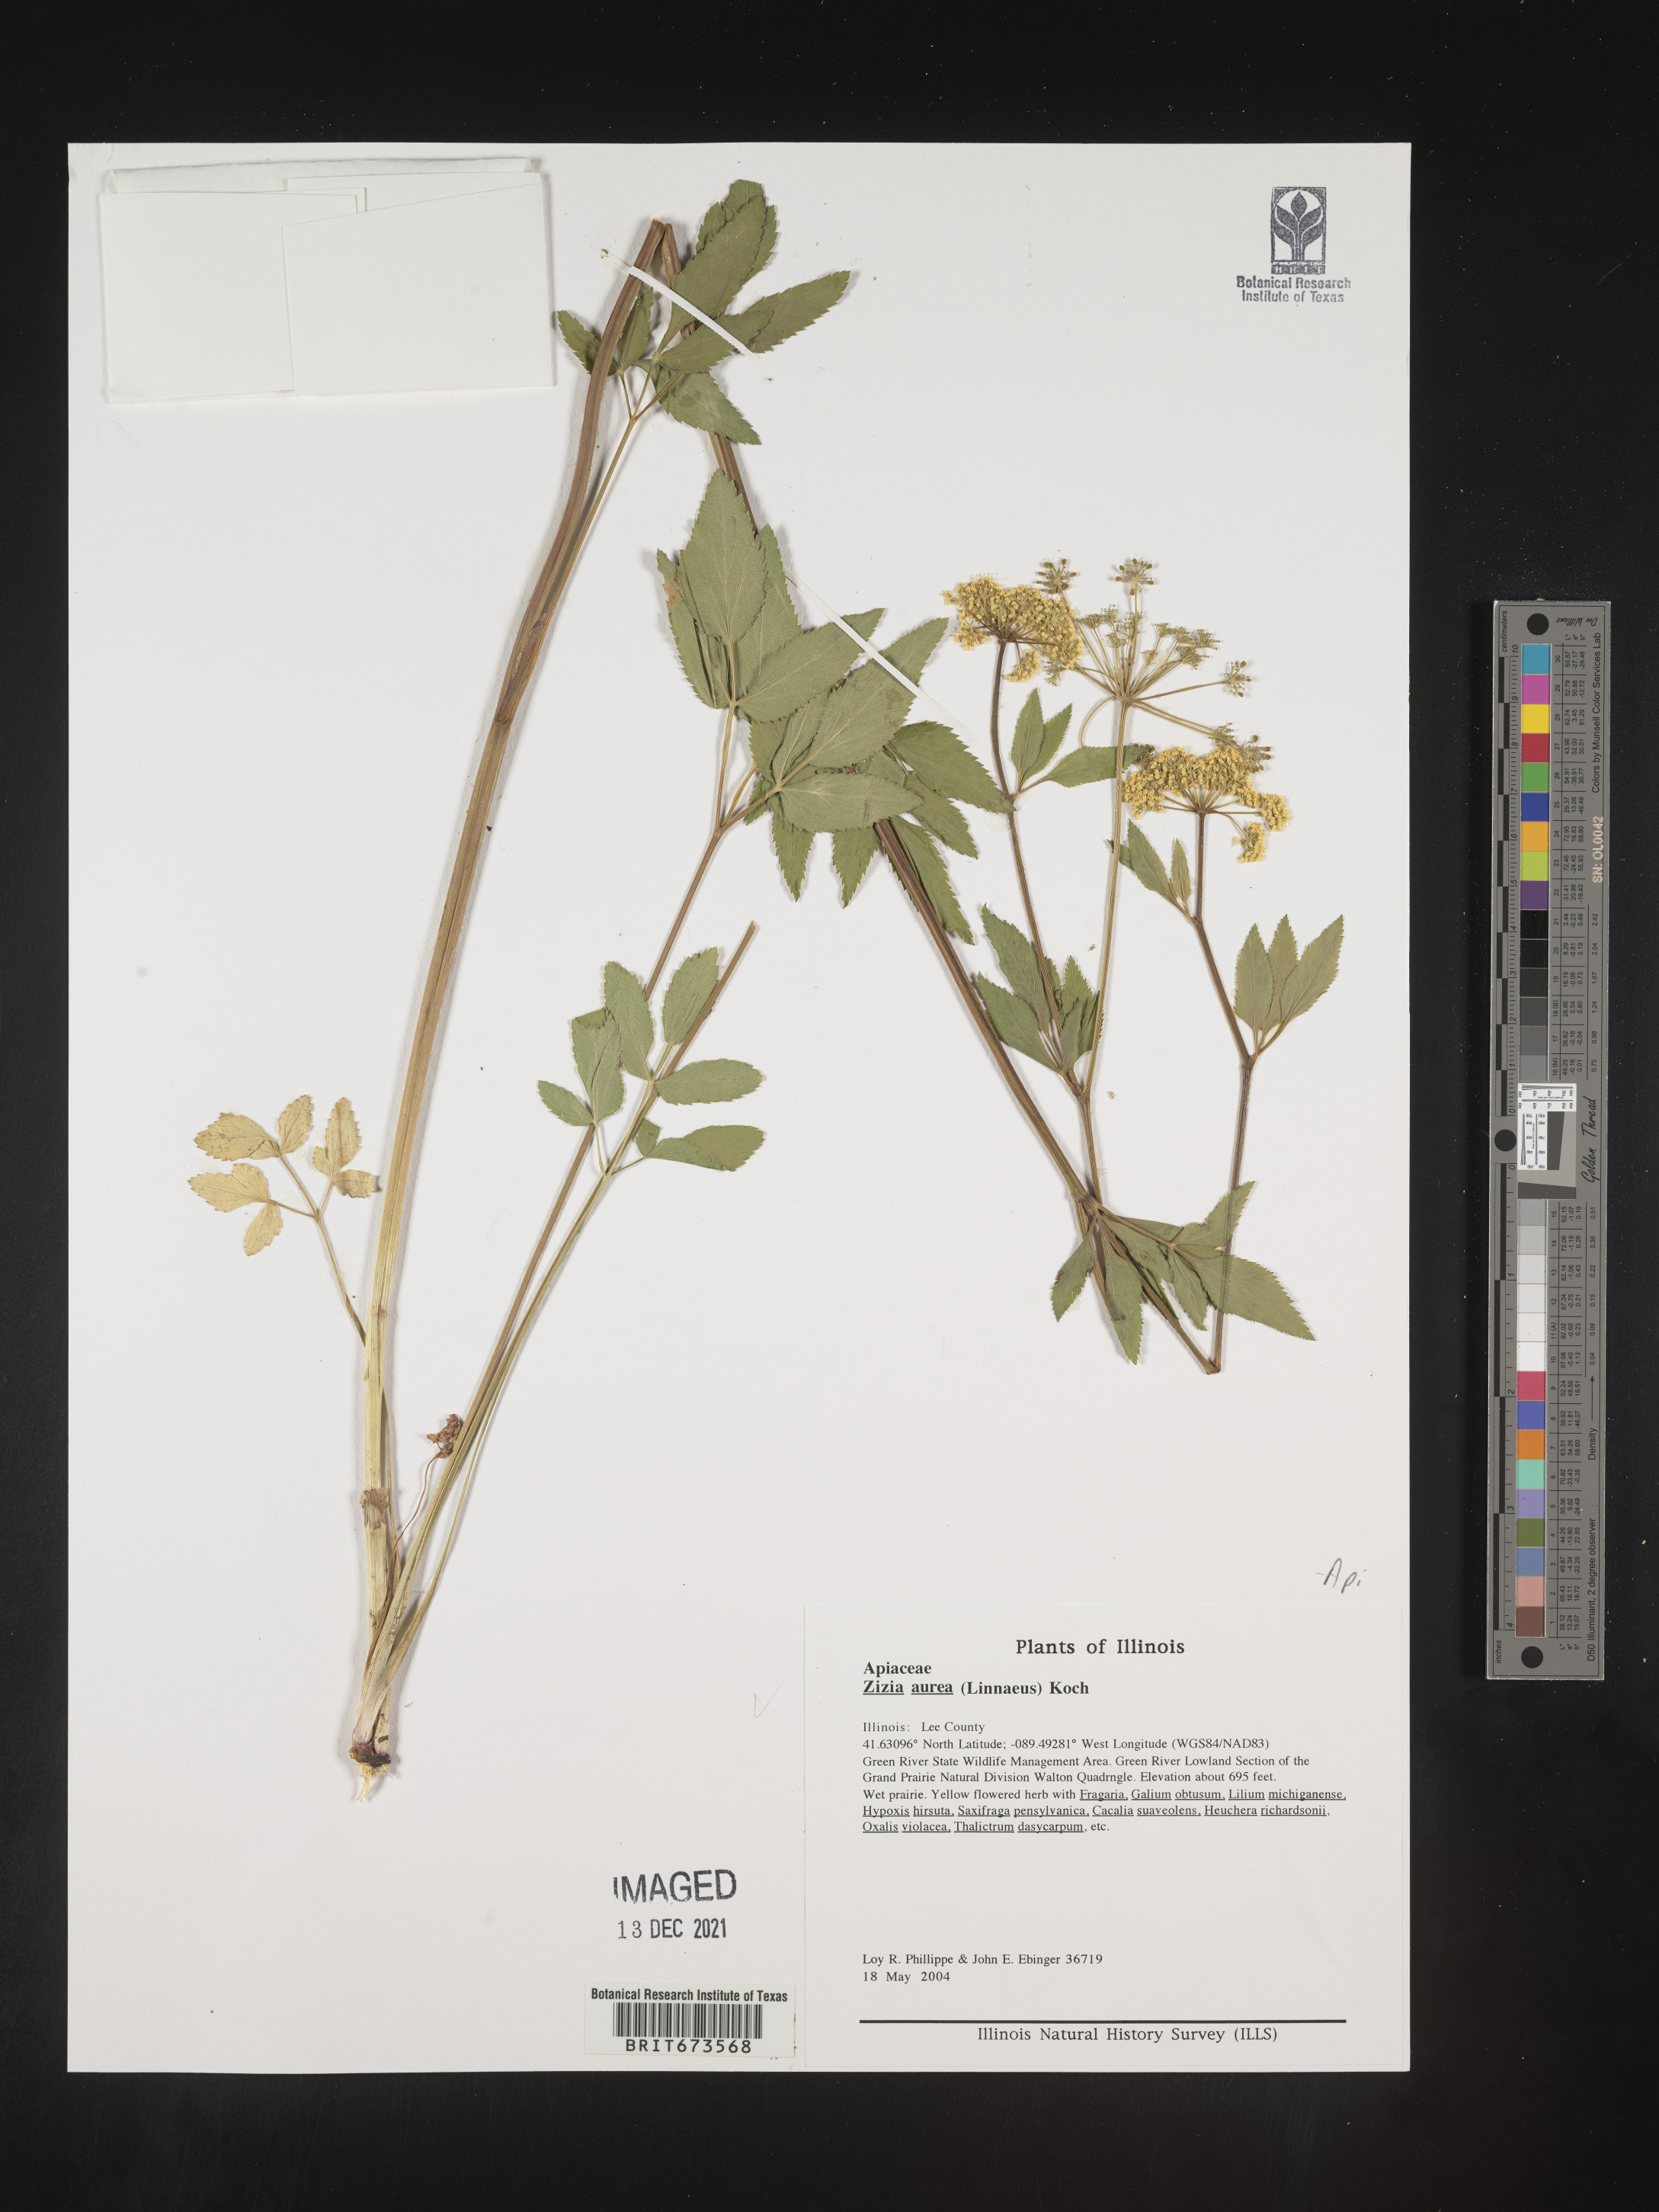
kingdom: Plantae
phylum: Tracheophyta
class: Magnoliopsida
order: Apiales
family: Apiaceae
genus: Zizia
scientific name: Zizia aurea
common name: Golden alexanders
